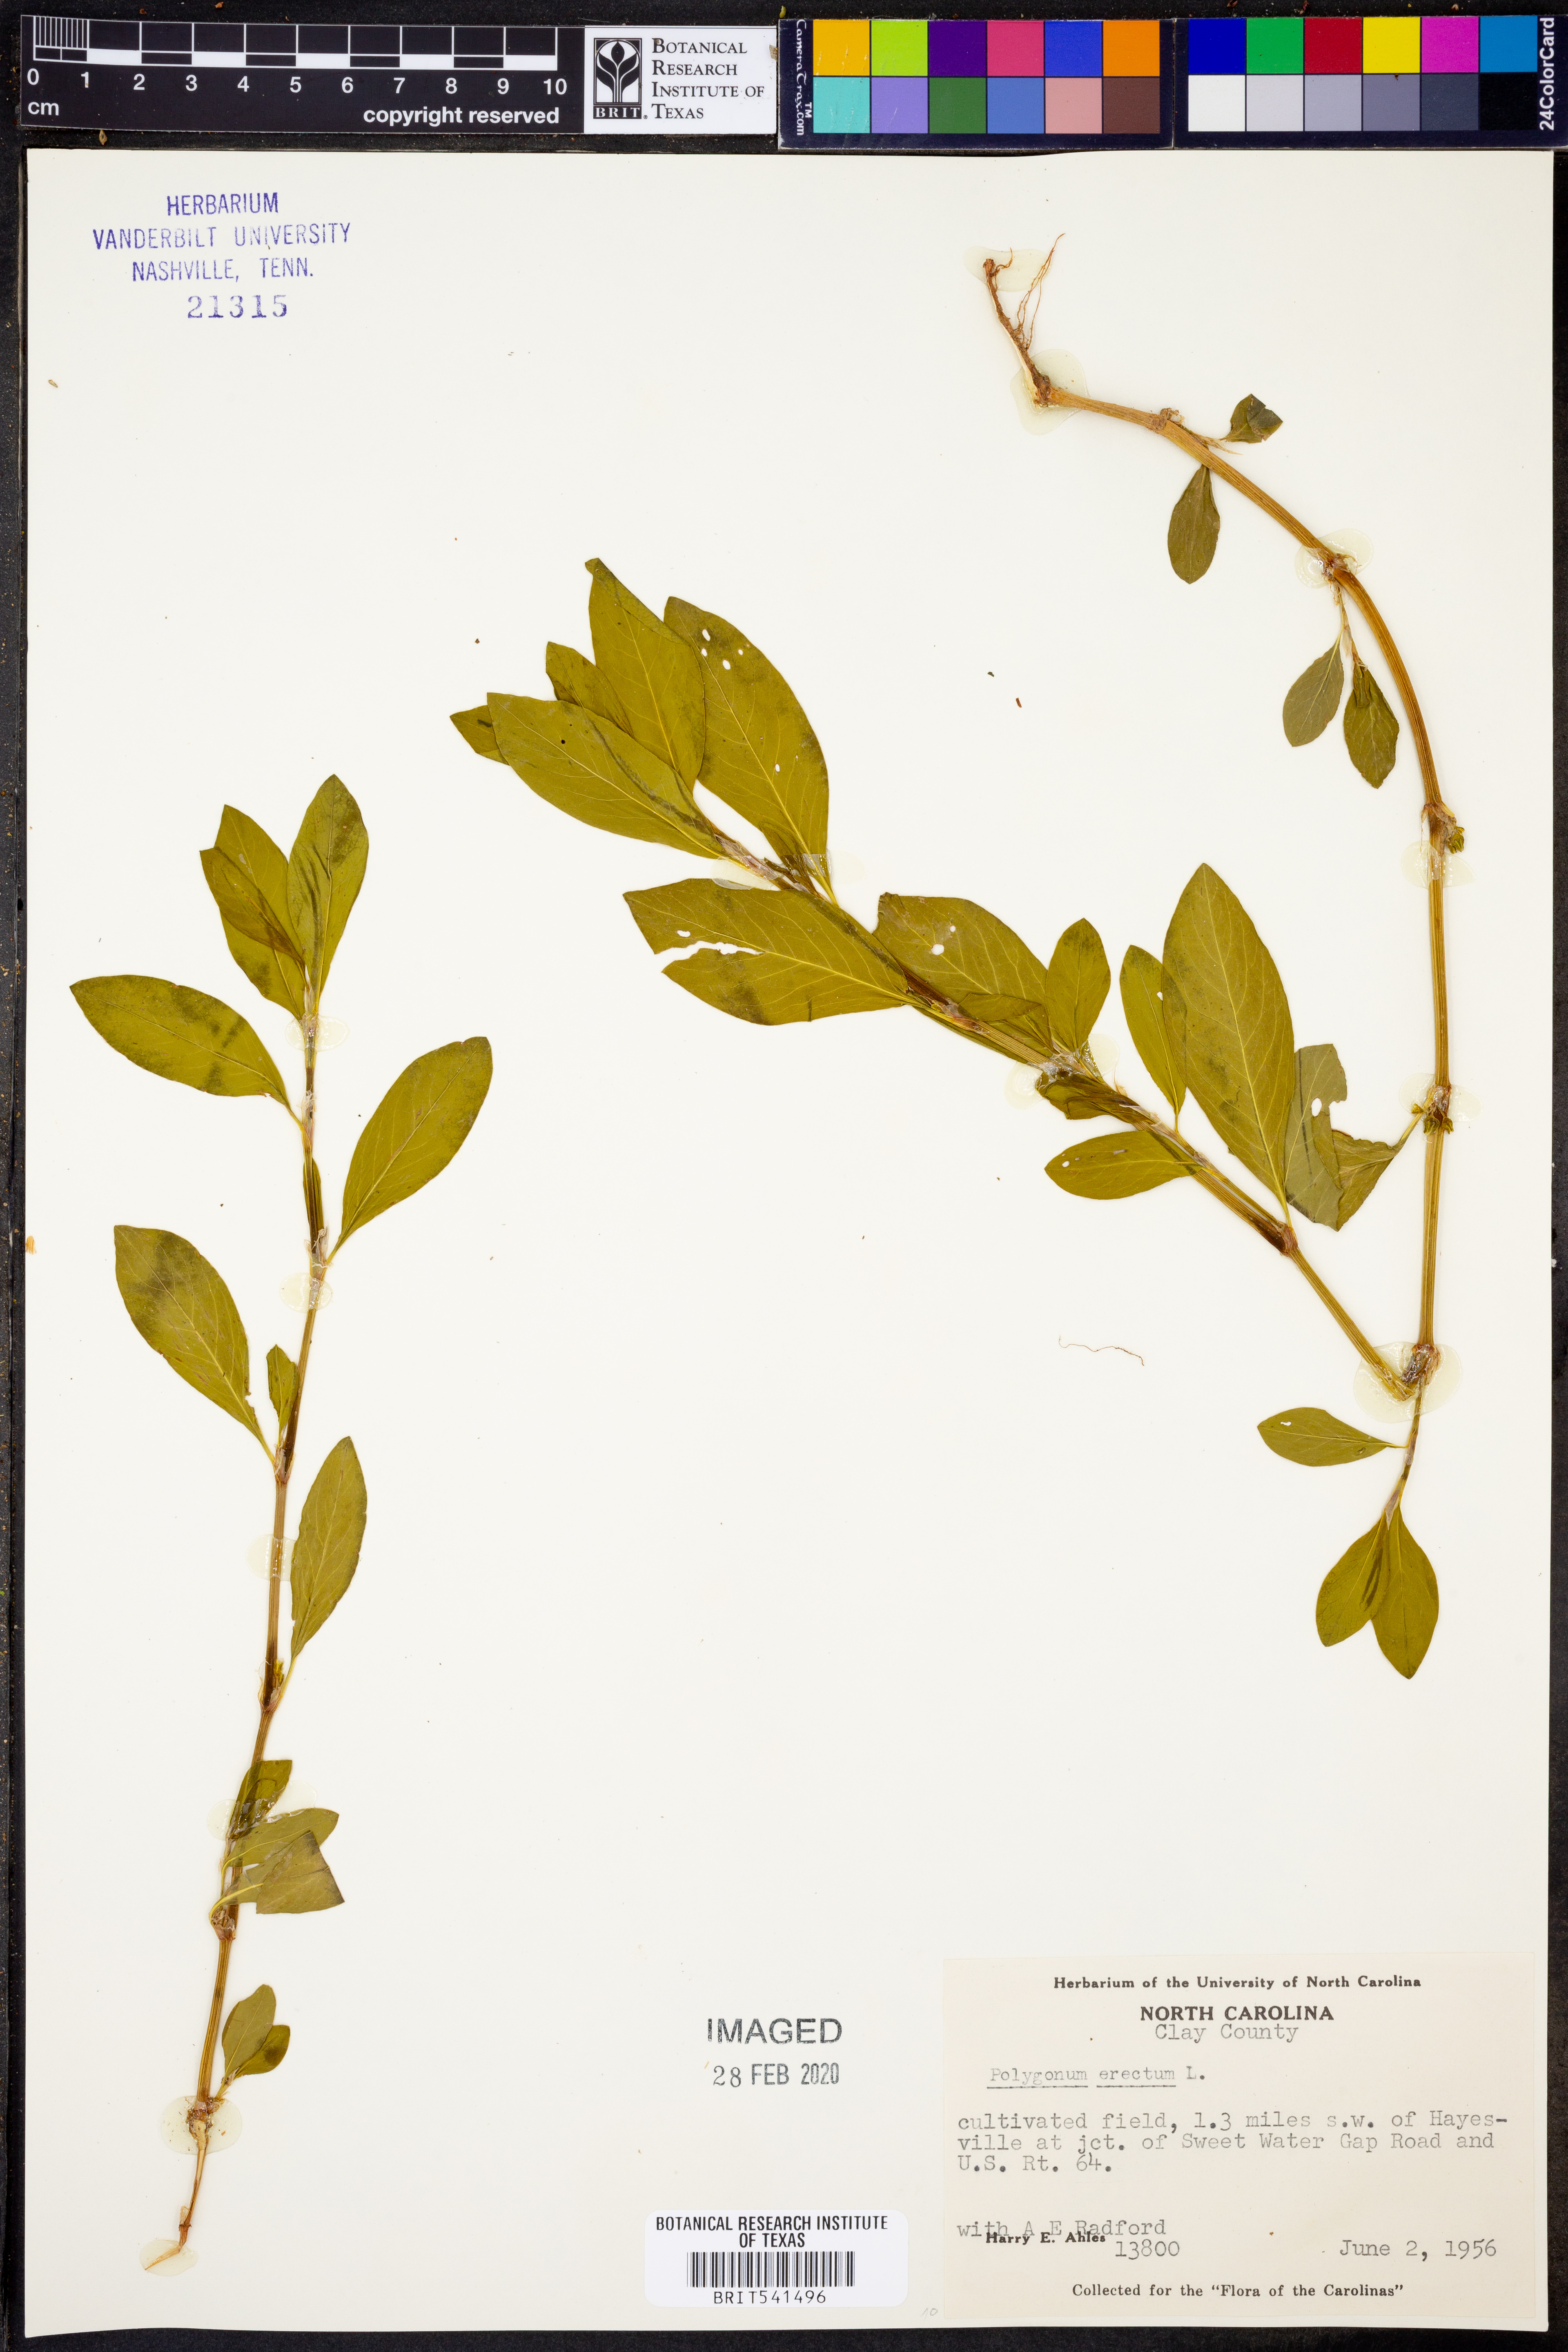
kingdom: Plantae
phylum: Tracheophyta
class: Magnoliopsida
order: Caryophyllales
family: Polygonaceae
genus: Polygonum
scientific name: Polygonum erectum
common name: Erect knotweed
